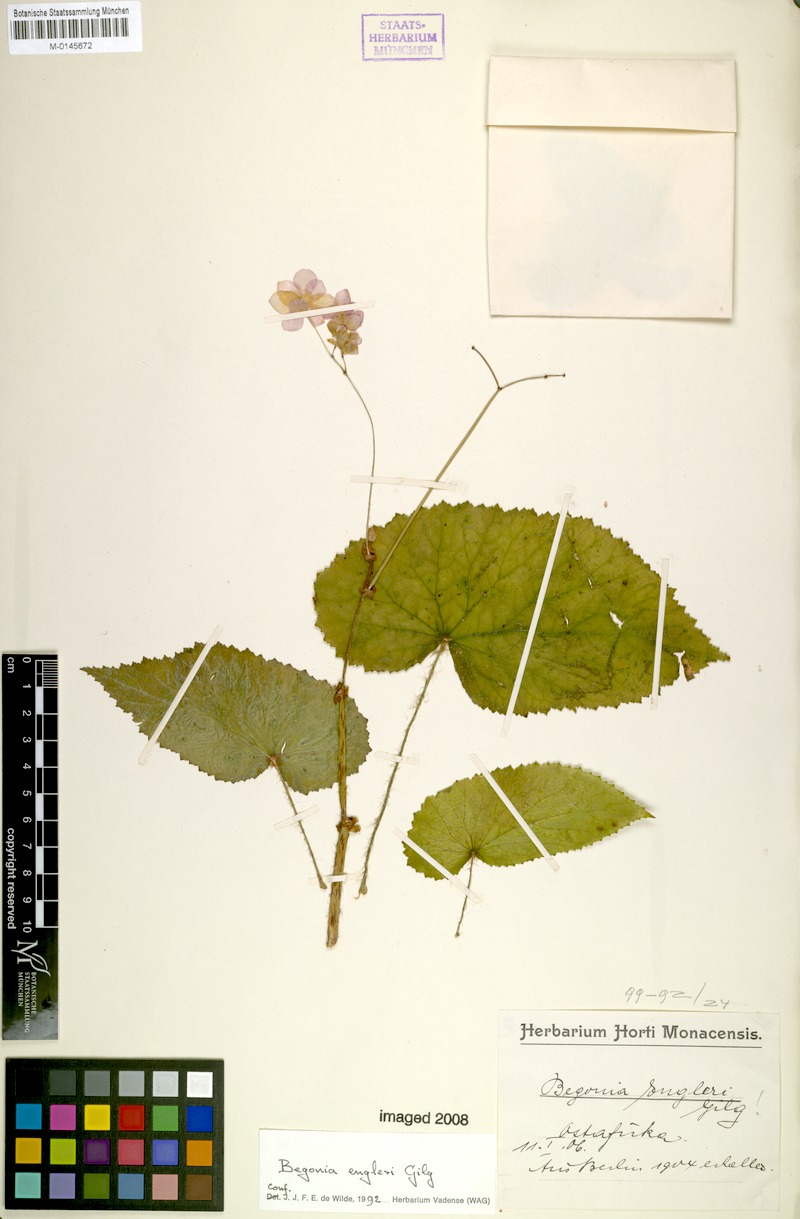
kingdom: Plantae
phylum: Tracheophyta
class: Magnoliopsida
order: Cucurbitales
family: Begoniaceae
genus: Begonia
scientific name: Begonia engleri
